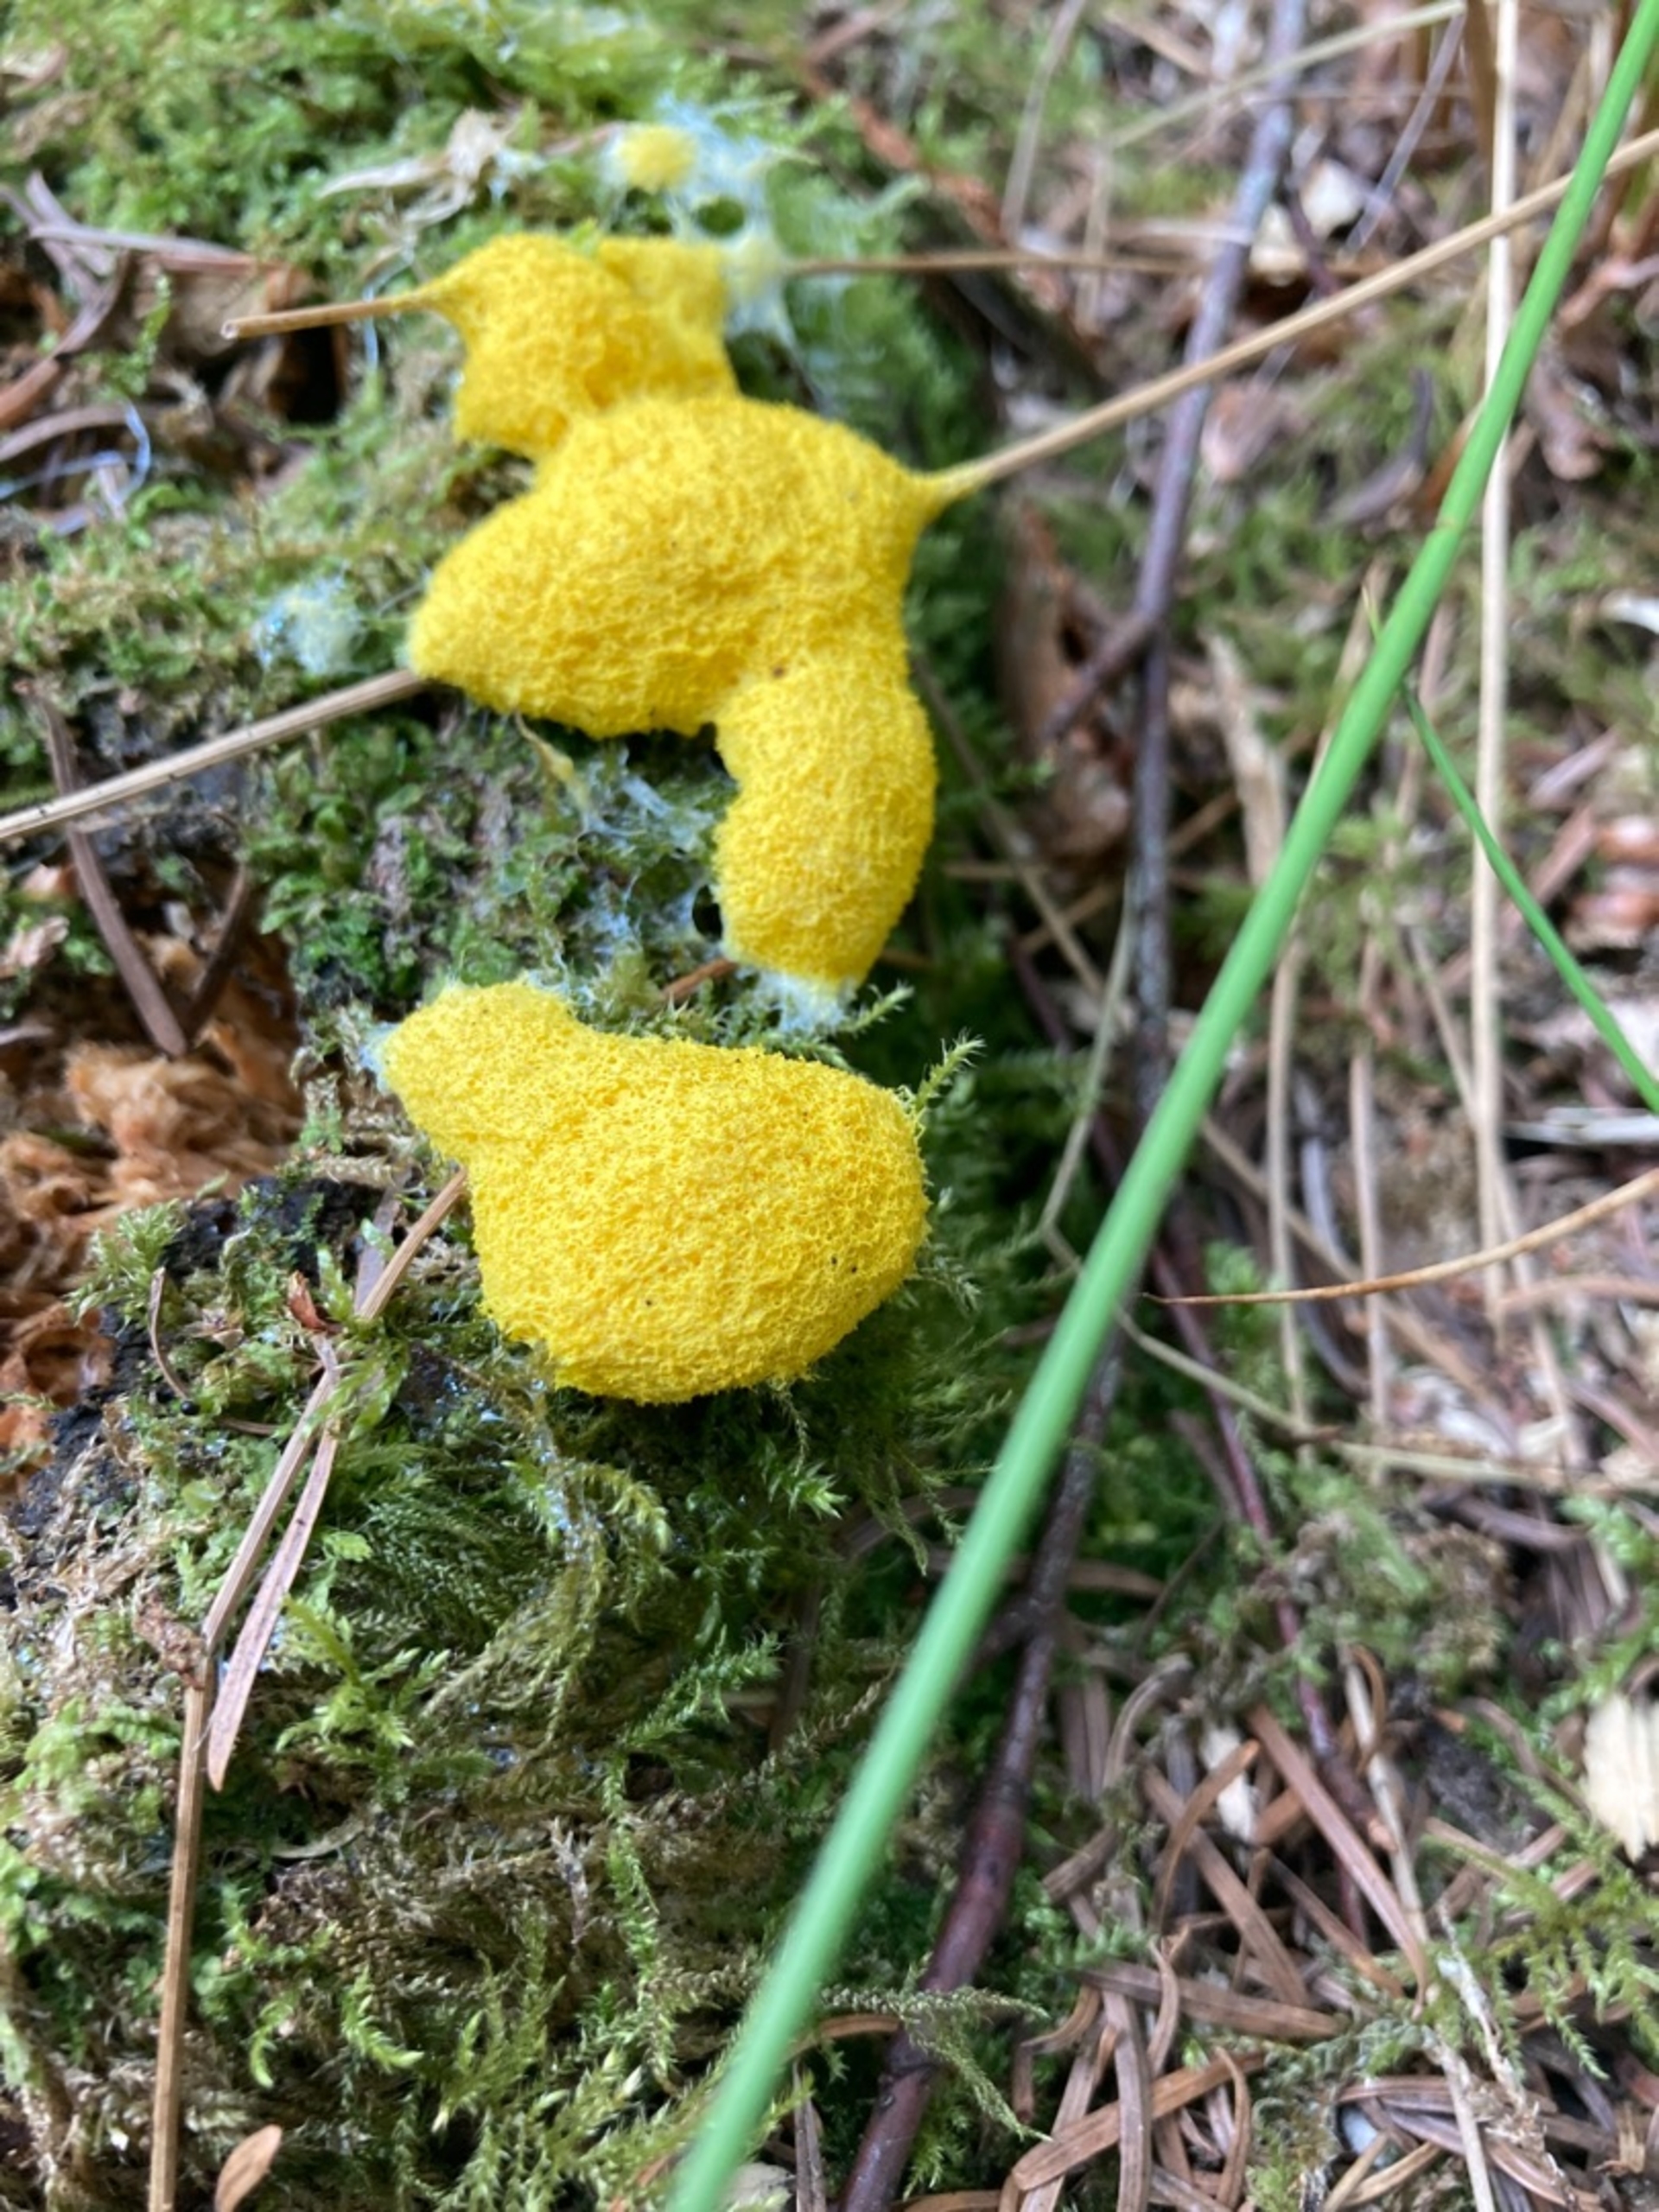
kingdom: Protozoa
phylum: Mycetozoa
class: Myxomycetes
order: Physarales
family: Physaraceae
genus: Fuligo
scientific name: Fuligo septica
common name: Gul troldsmør
